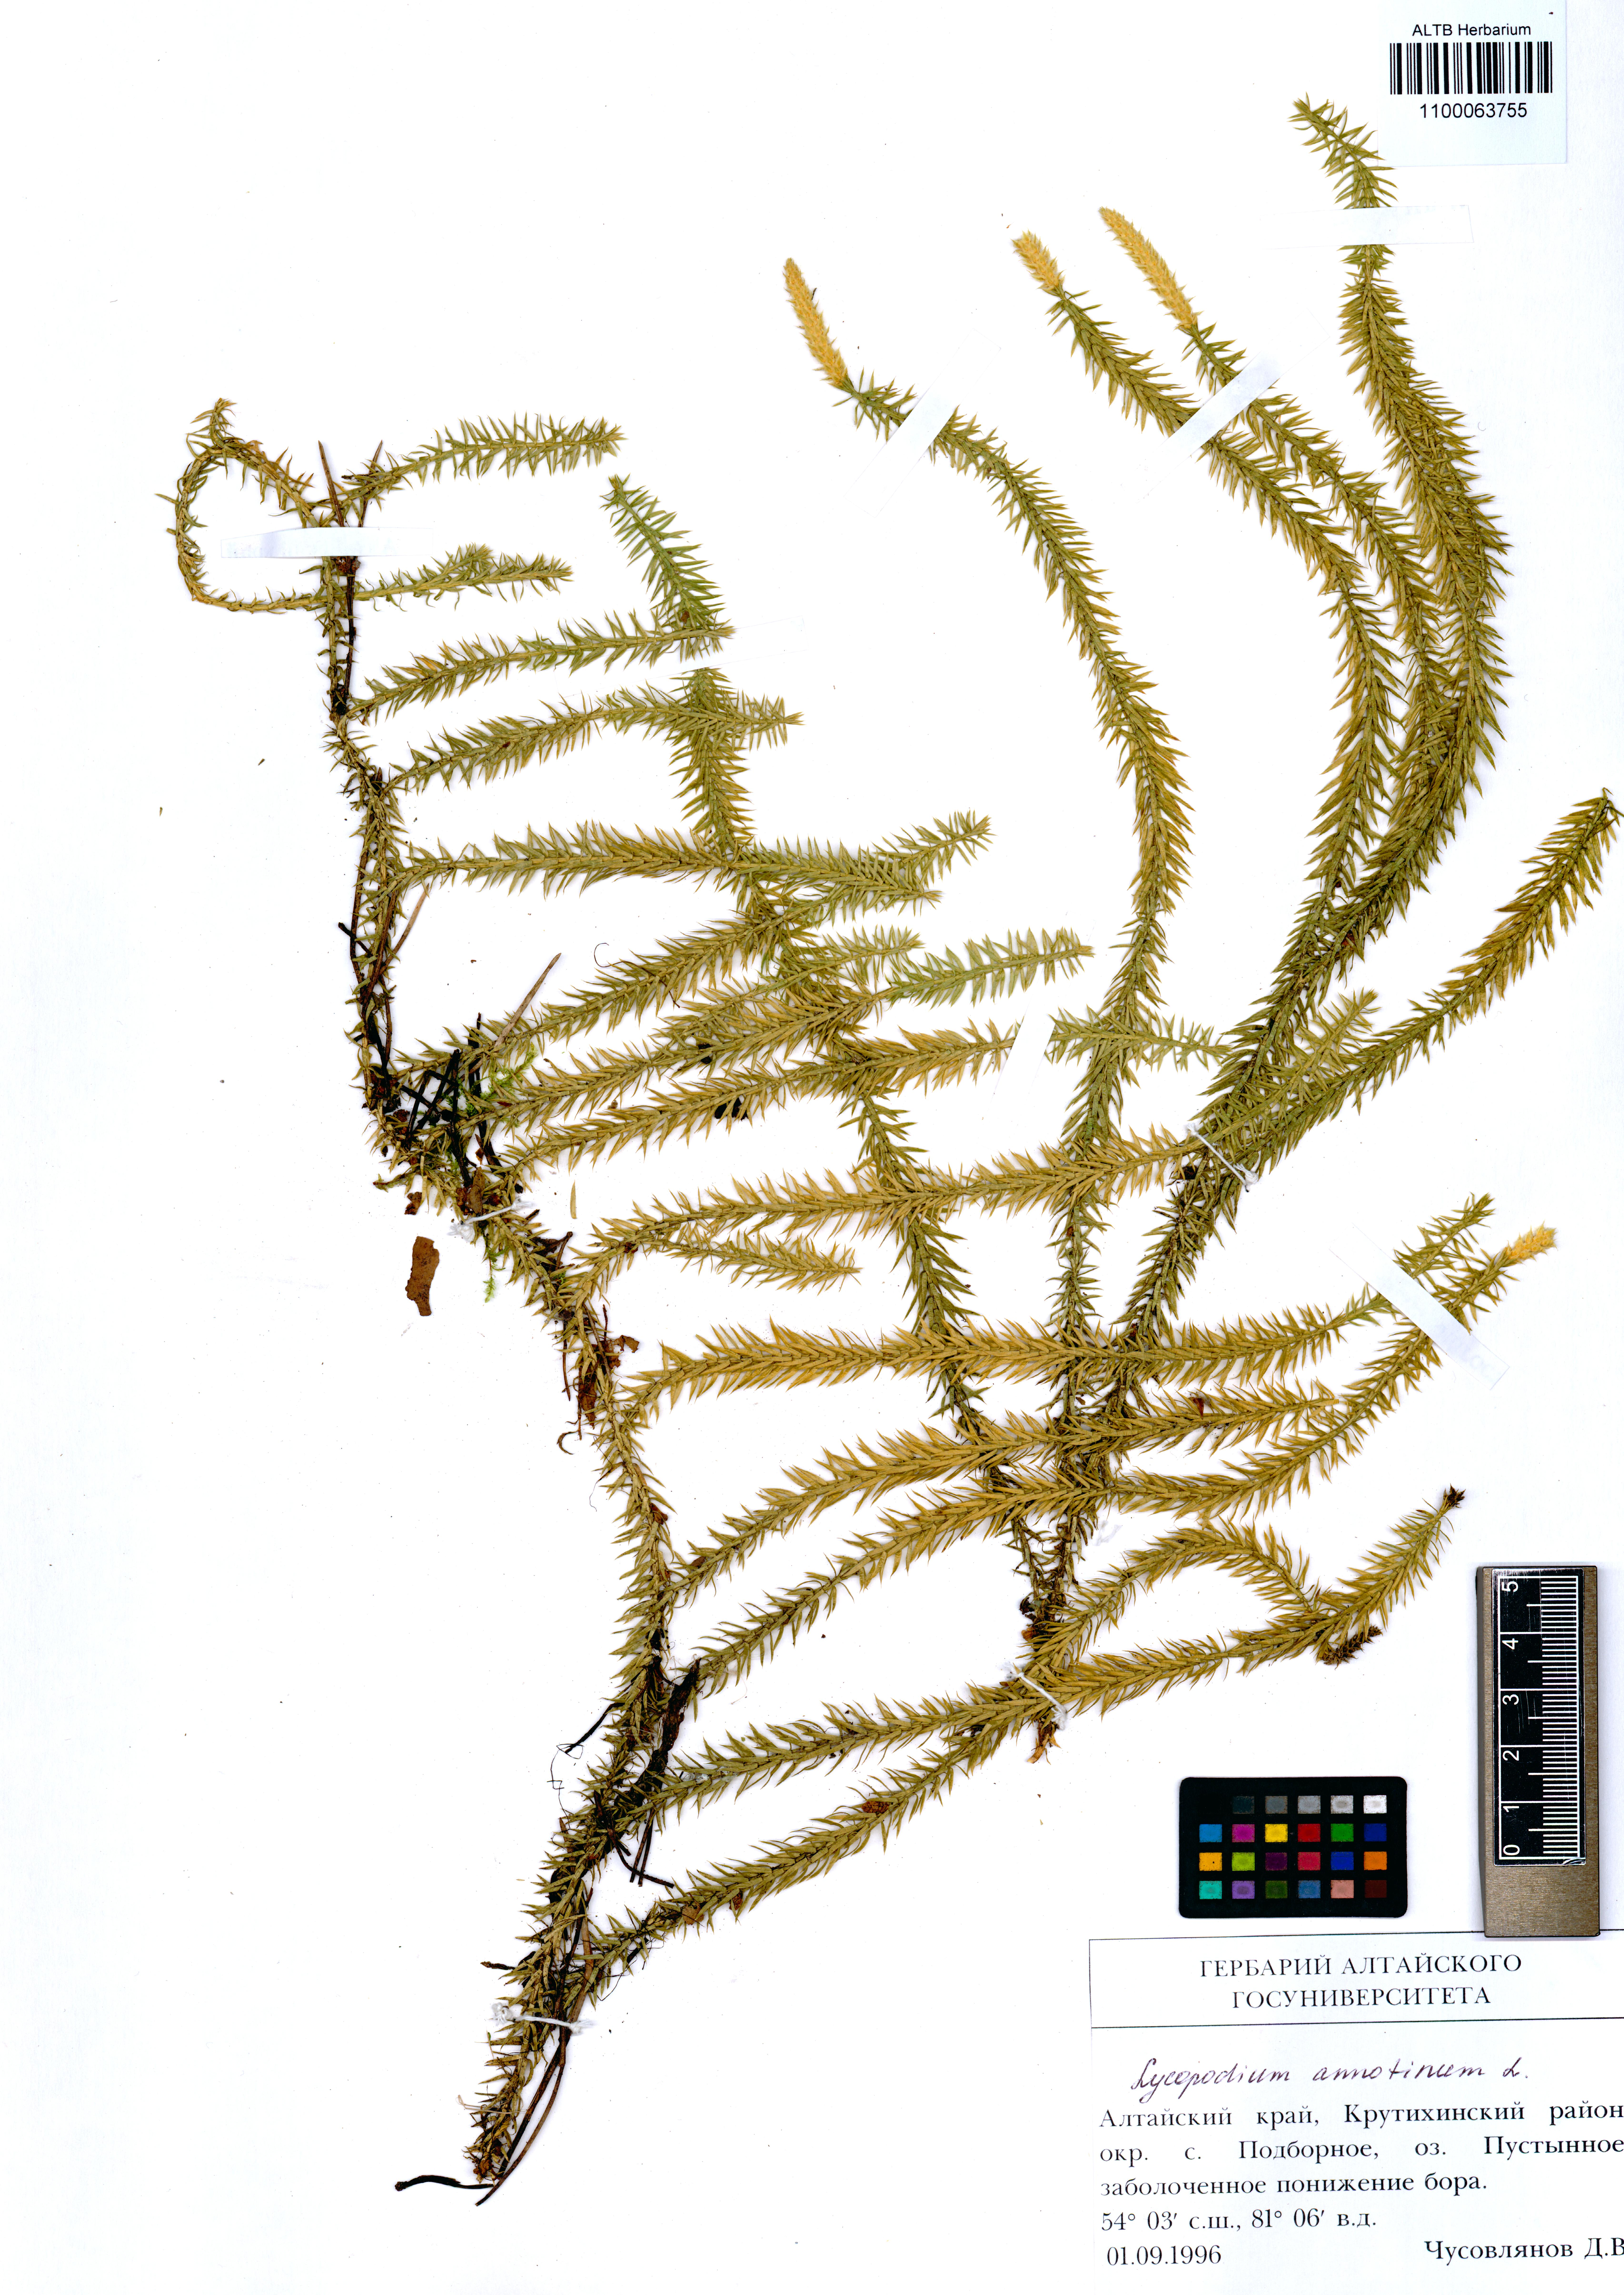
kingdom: Plantae
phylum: Tracheophyta
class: Lycopodiopsida
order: Lycopodiales
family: Lycopodiaceae
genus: Spinulum
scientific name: Spinulum annotinum
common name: Interrupted club-moss
